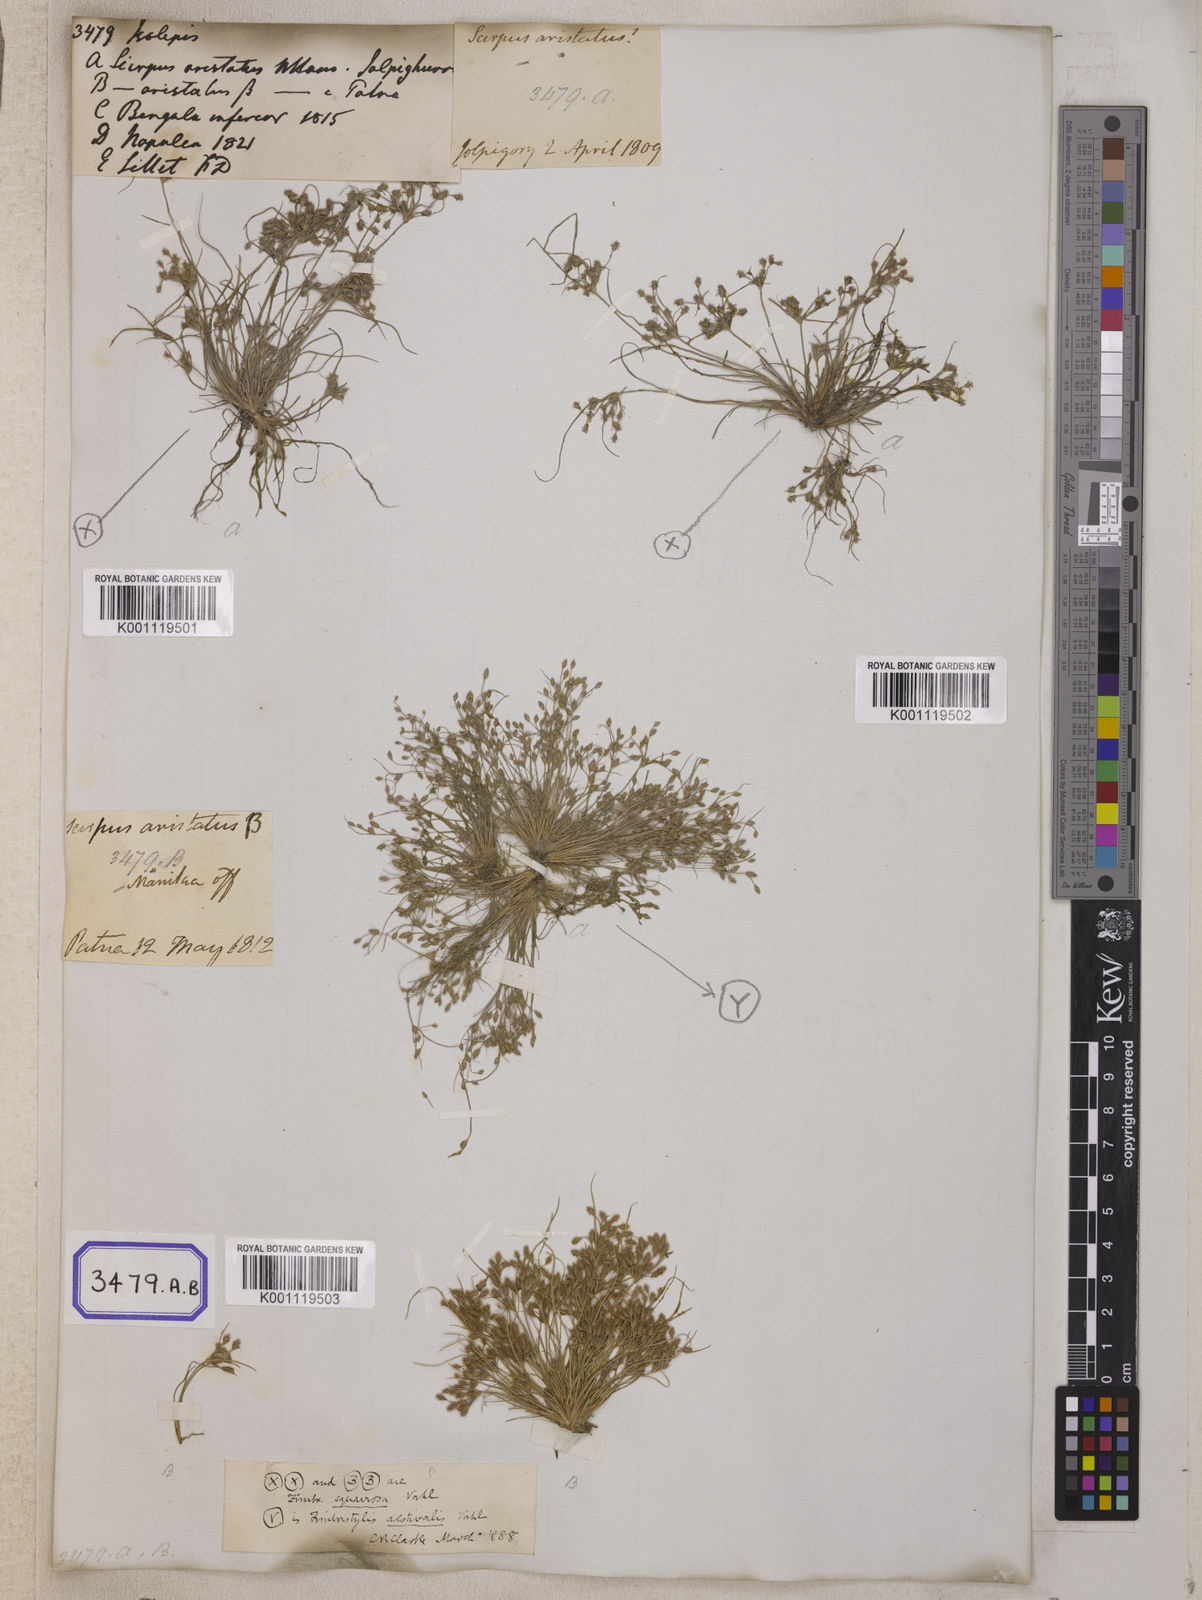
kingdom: Plantae
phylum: Tracheophyta
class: Liliopsida
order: Poales
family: Cyperaceae
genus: Isolepis
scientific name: Isolepis
